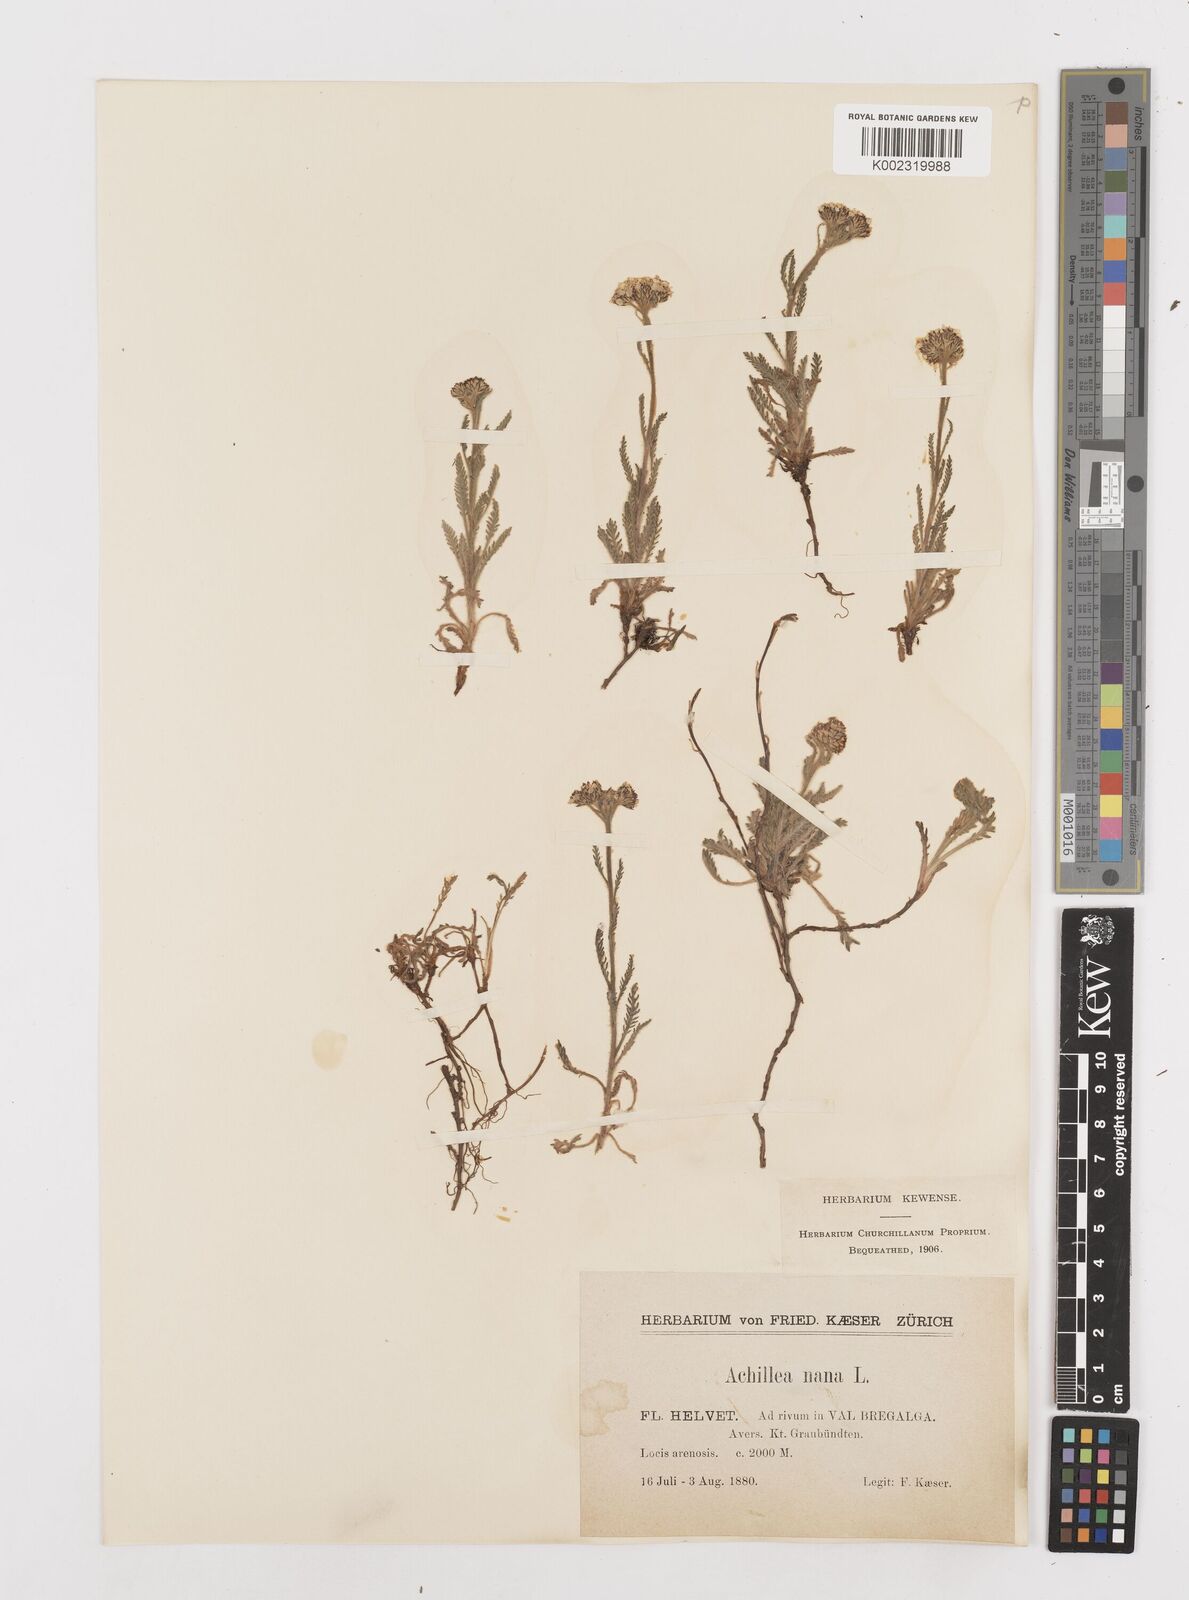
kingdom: Plantae
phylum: Tracheophyta
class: Magnoliopsida
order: Asterales
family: Asteraceae
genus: Achillea
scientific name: Achillea nana
